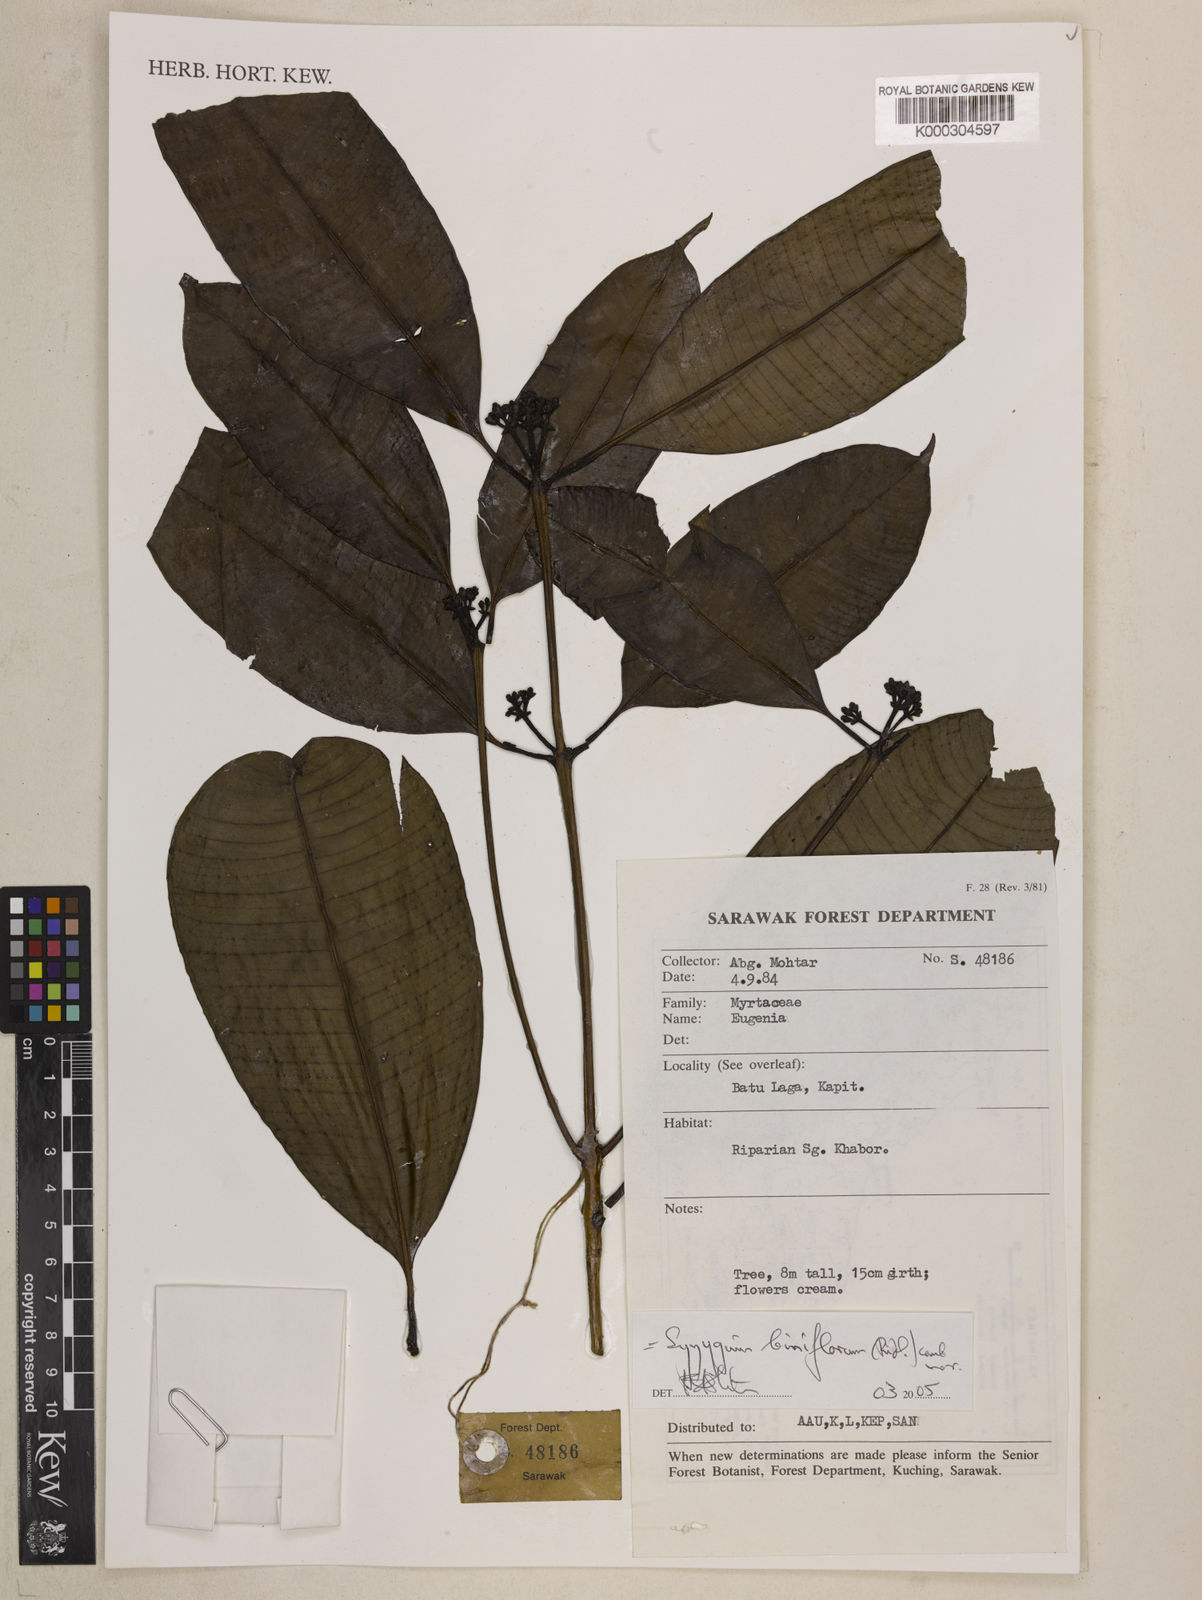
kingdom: Plantae
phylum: Tracheophyta
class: Magnoliopsida
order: Myrtales
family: Myrtaceae
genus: Syzygium
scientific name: Syzygium biniflorum
